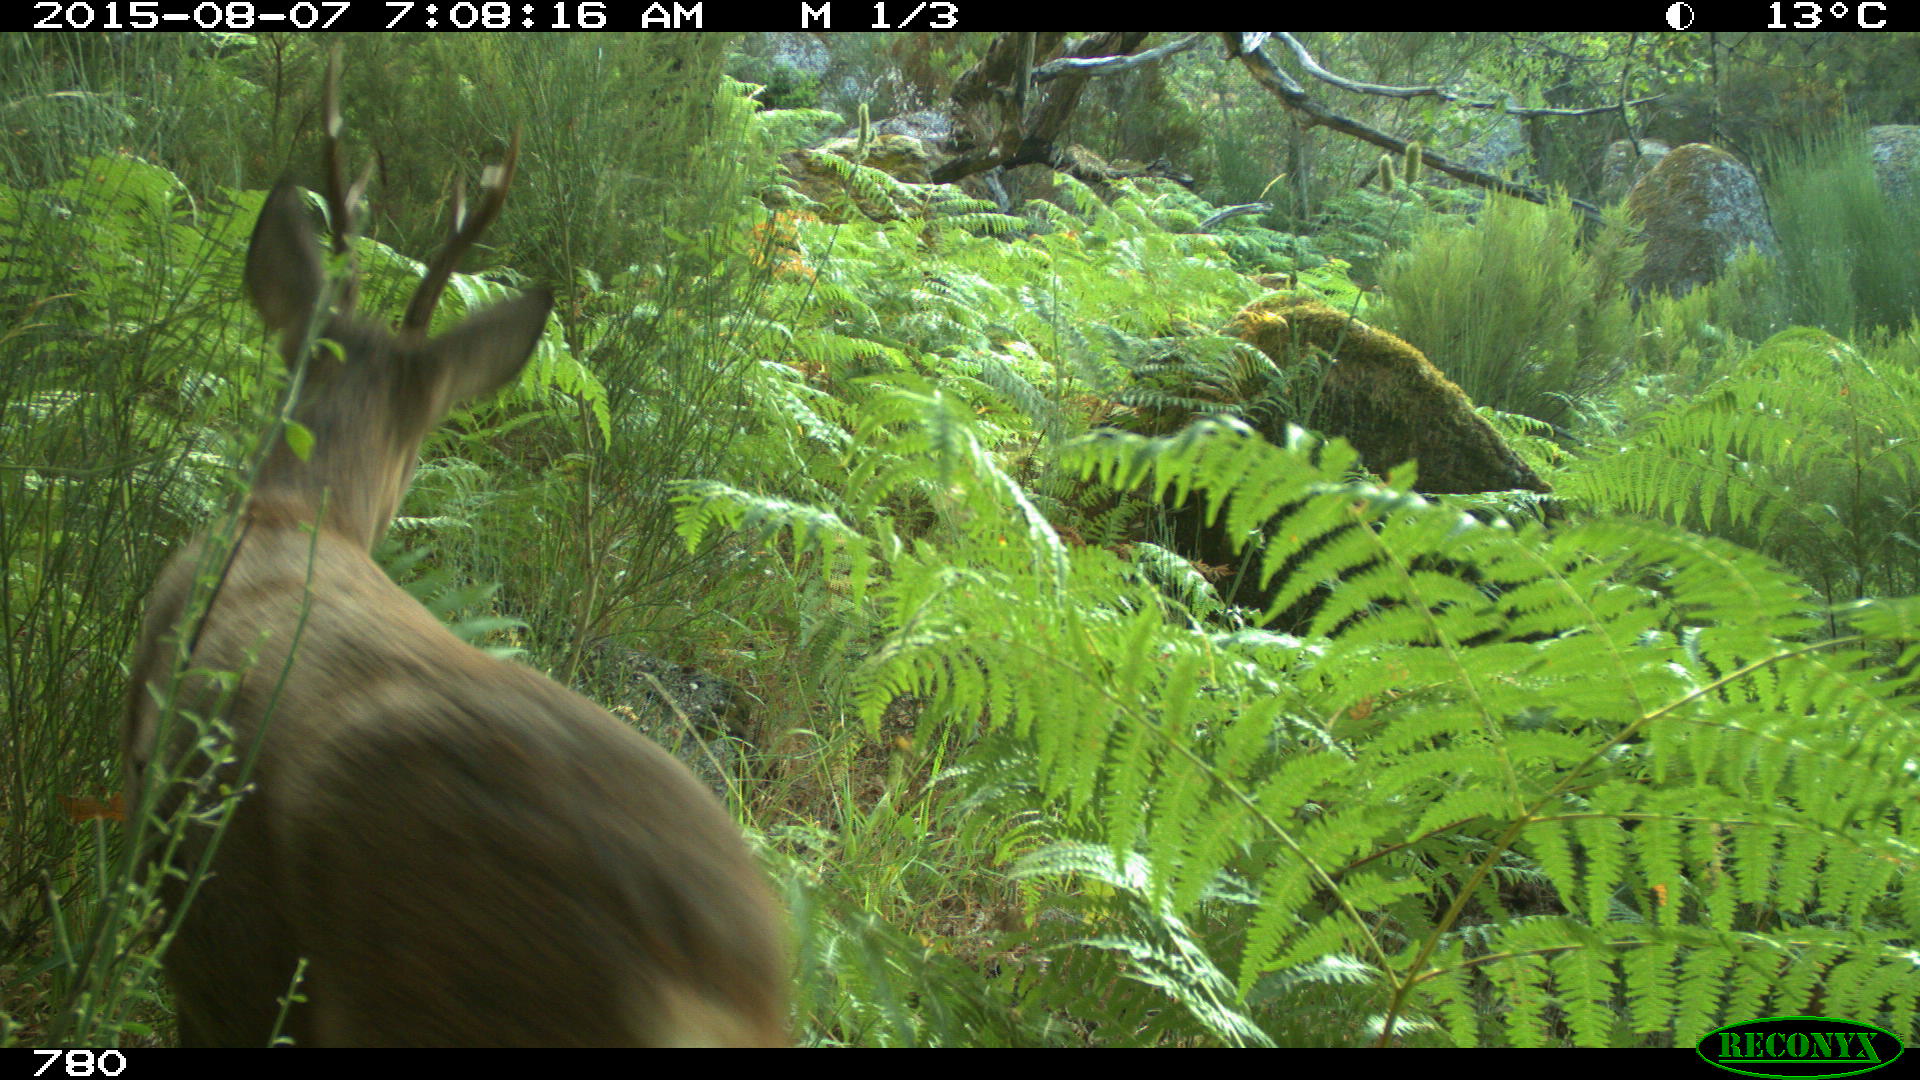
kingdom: Animalia
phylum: Chordata
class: Mammalia
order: Artiodactyla
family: Cervidae
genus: Capreolus
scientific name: Capreolus capreolus
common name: Western roe deer
